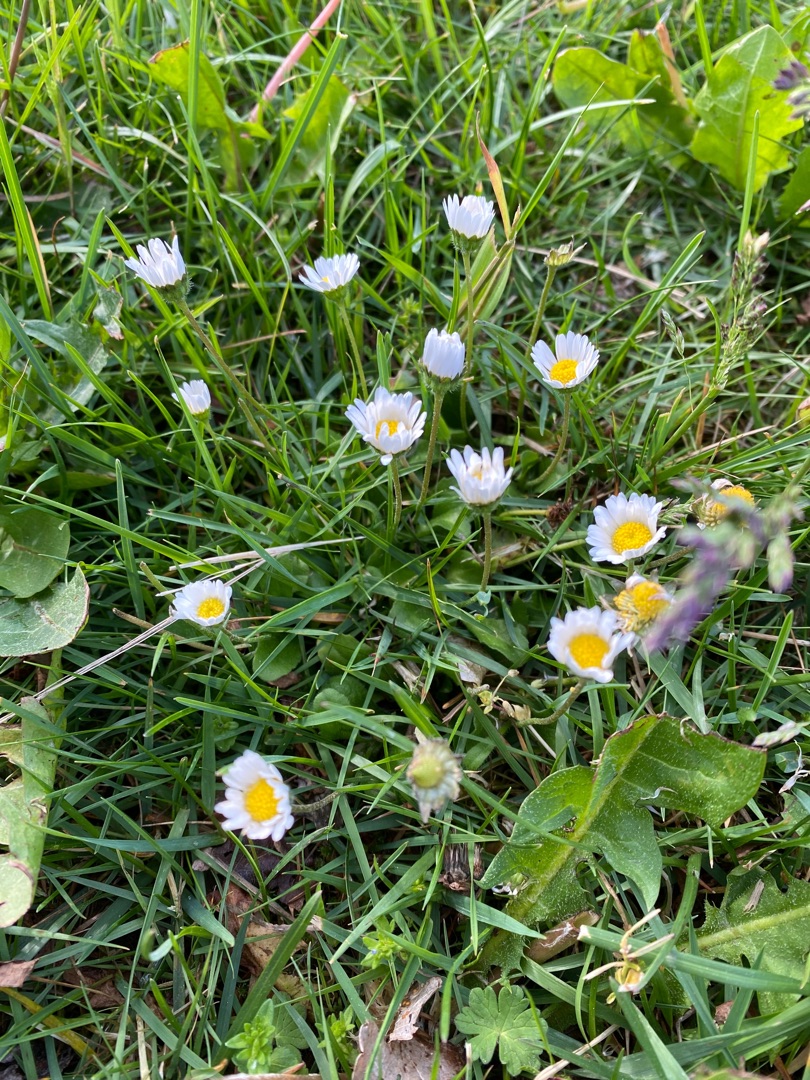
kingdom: Plantae
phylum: Tracheophyta
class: Magnoliopsida
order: Asterales
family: Asteraceae
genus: Bellis
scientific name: Bellis perennis
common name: Tusindfryd
